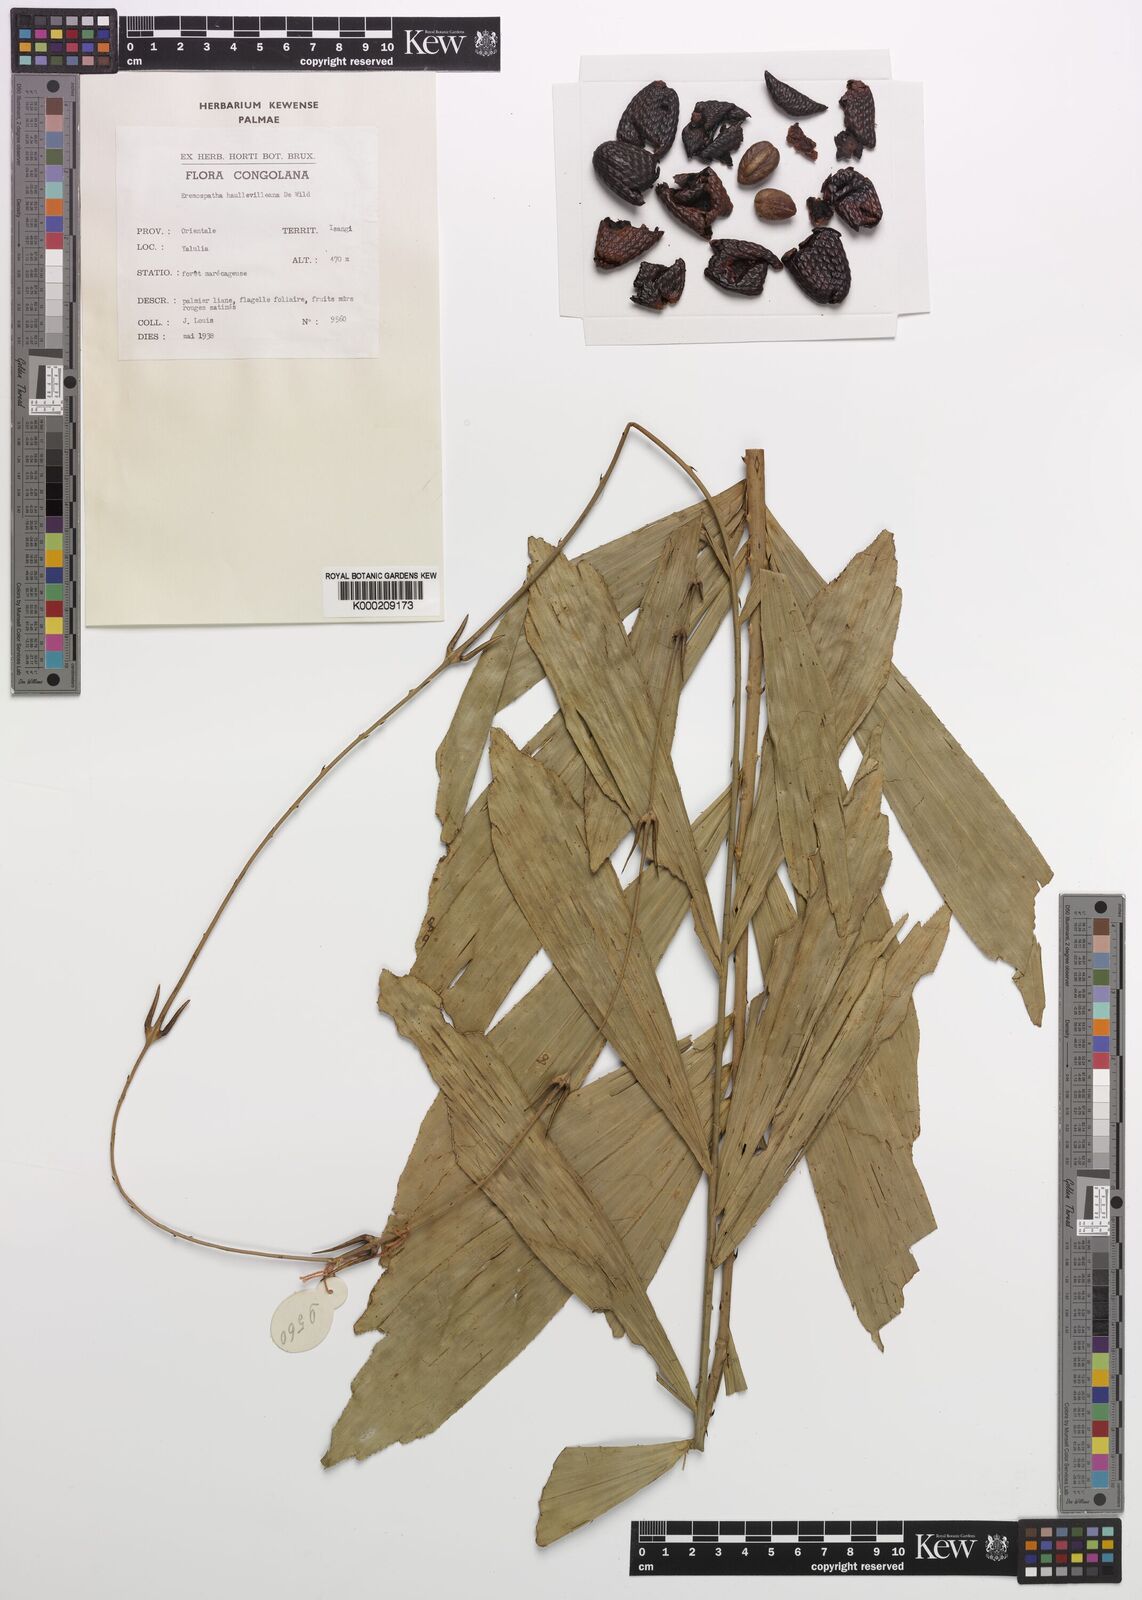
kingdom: Plantae
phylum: Tracheophyta
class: Liliopsida
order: Arecales
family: Arecaceae
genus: Eremospatha
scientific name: Eremospatha haullevilleana
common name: Rattan
